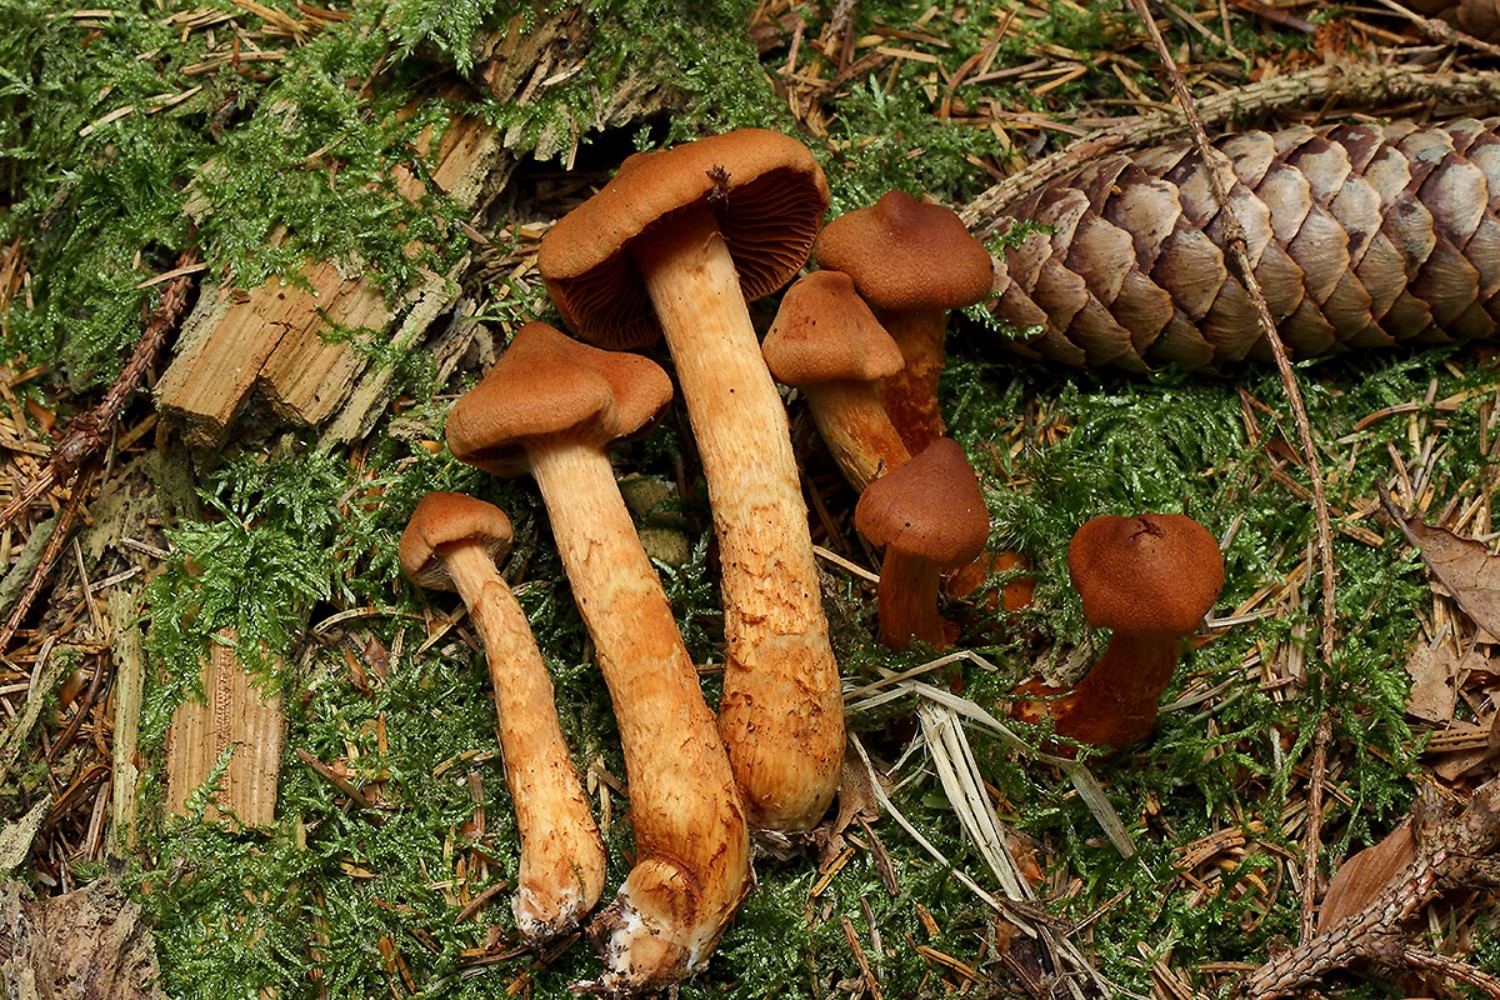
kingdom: Fungi
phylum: Basidiomycota
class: Agaricomycetes
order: Agaricales
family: Cortinariaceae
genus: Cortinarius
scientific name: Cortinarius rubellus
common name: puklet gift-slørhat
